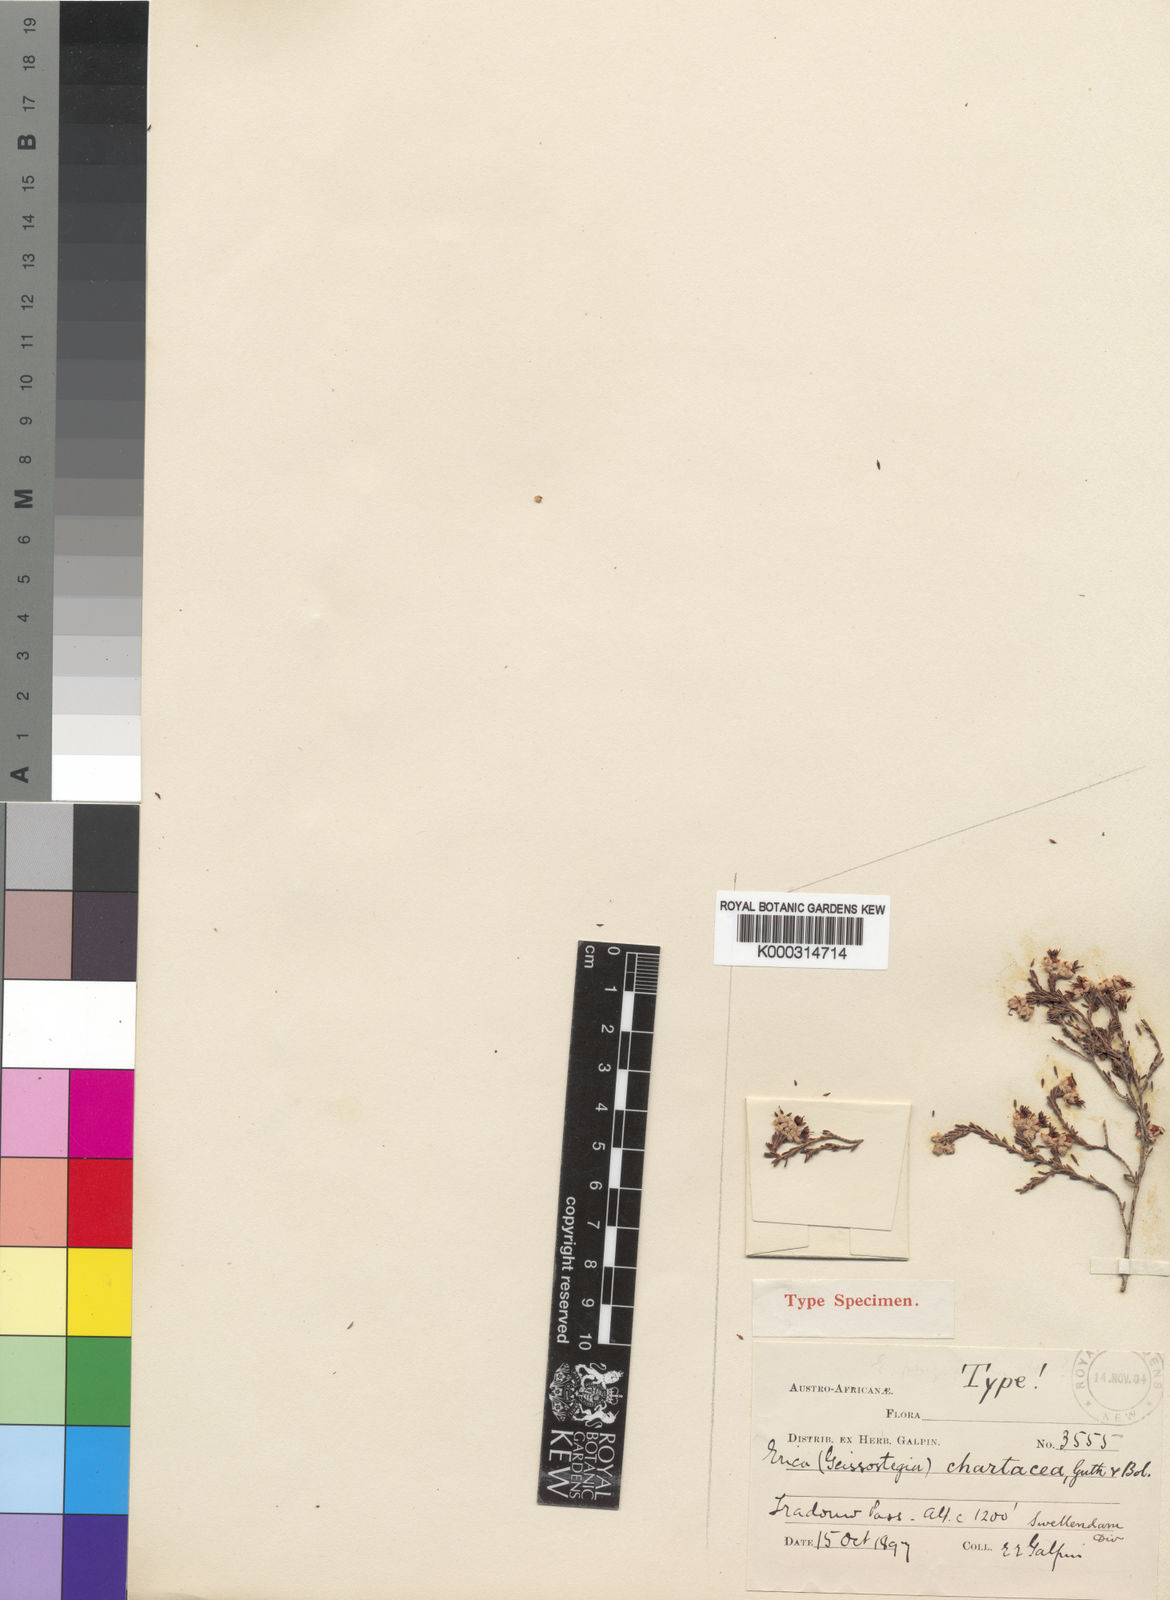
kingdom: Plantae
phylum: Tracheophyta
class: Magnoliopsida
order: Ericales
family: Ericaceae
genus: Erica
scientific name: Erica chartacea
